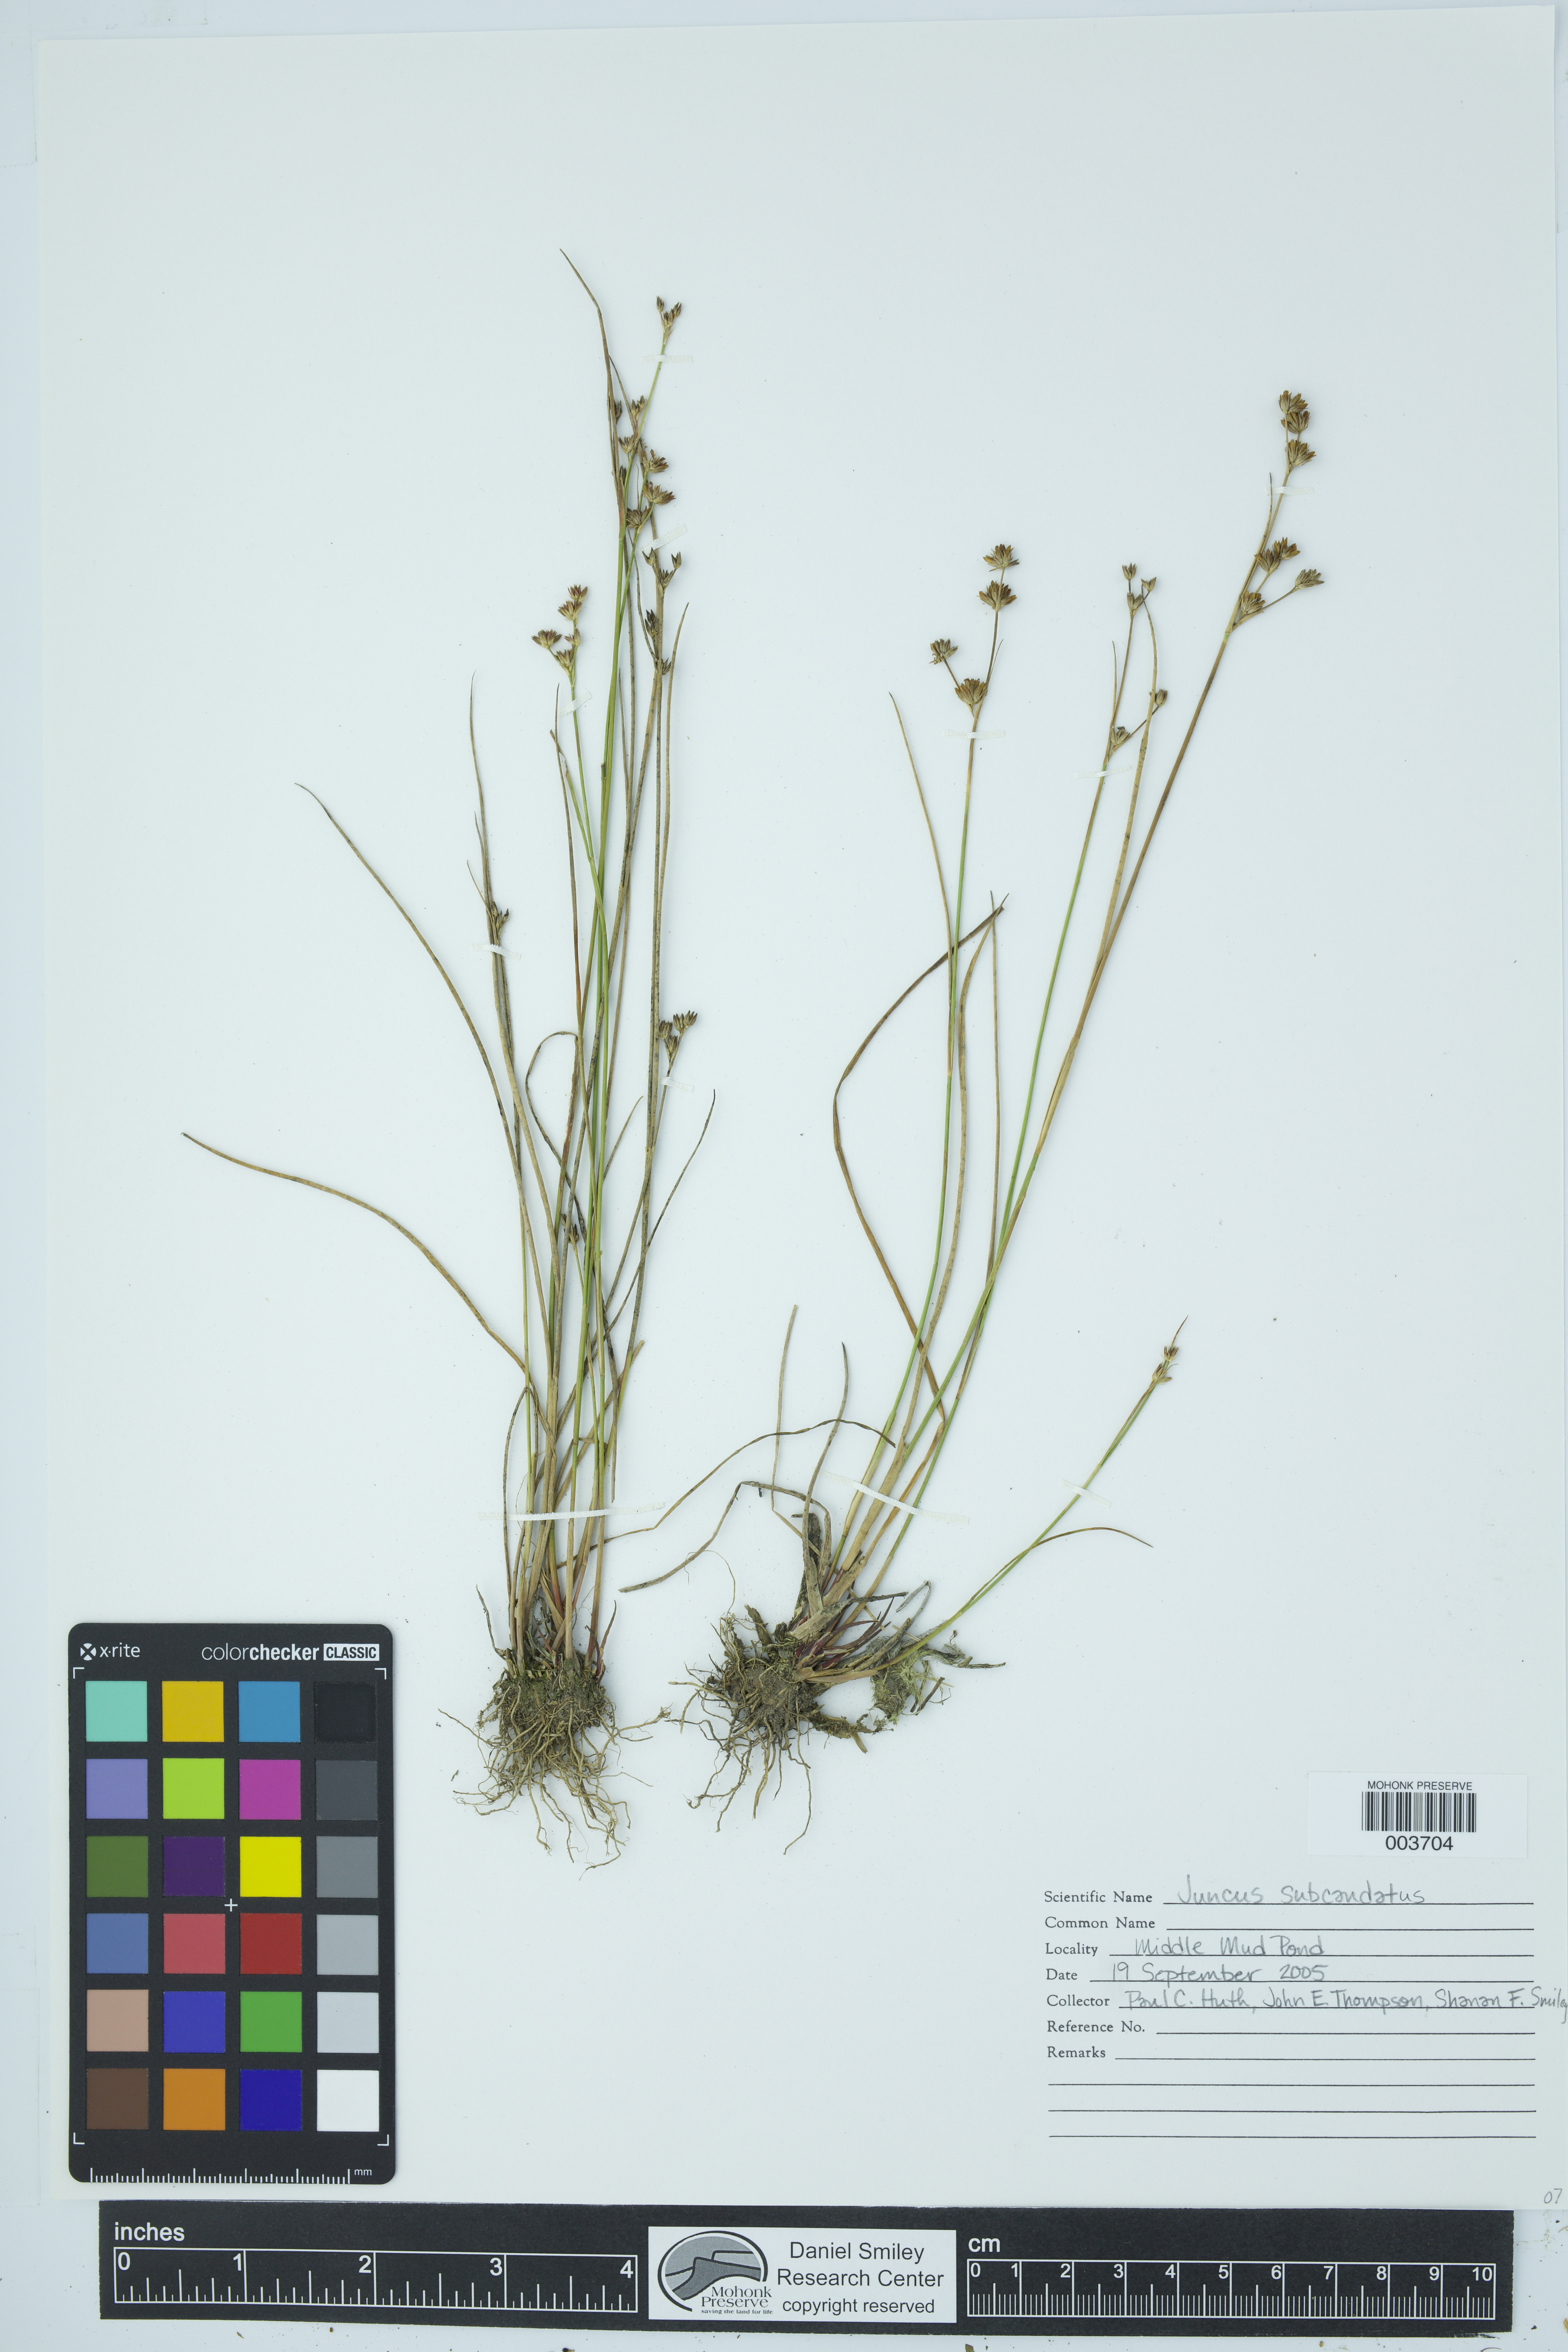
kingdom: Plantae
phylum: Tracheophyta
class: Liliopsida
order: Poales
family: Juncaceae
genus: Juncus
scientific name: Juncus subcaudatus
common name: Engelmann's rush
